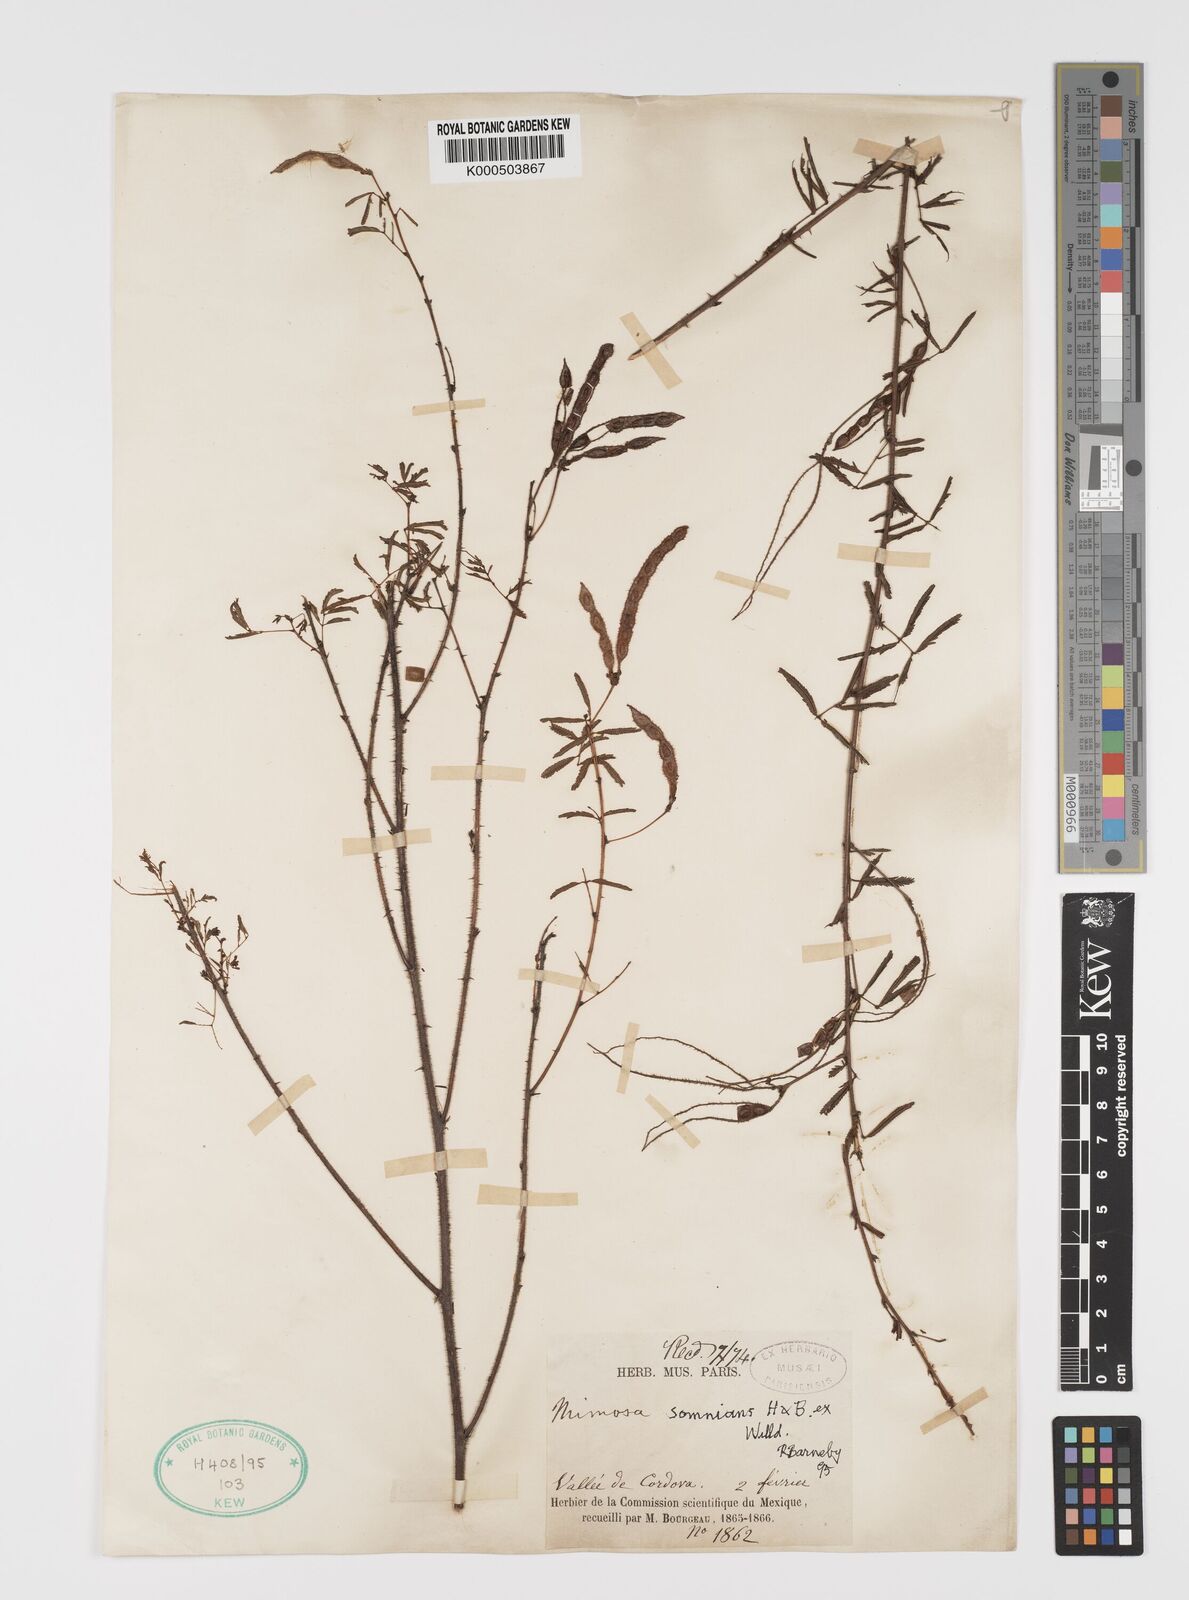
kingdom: Plantae
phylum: Tracheophyta
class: Magnoliopsida
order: Fabales
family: Fabaceae
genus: Mimosa
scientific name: Mimosa somnians
